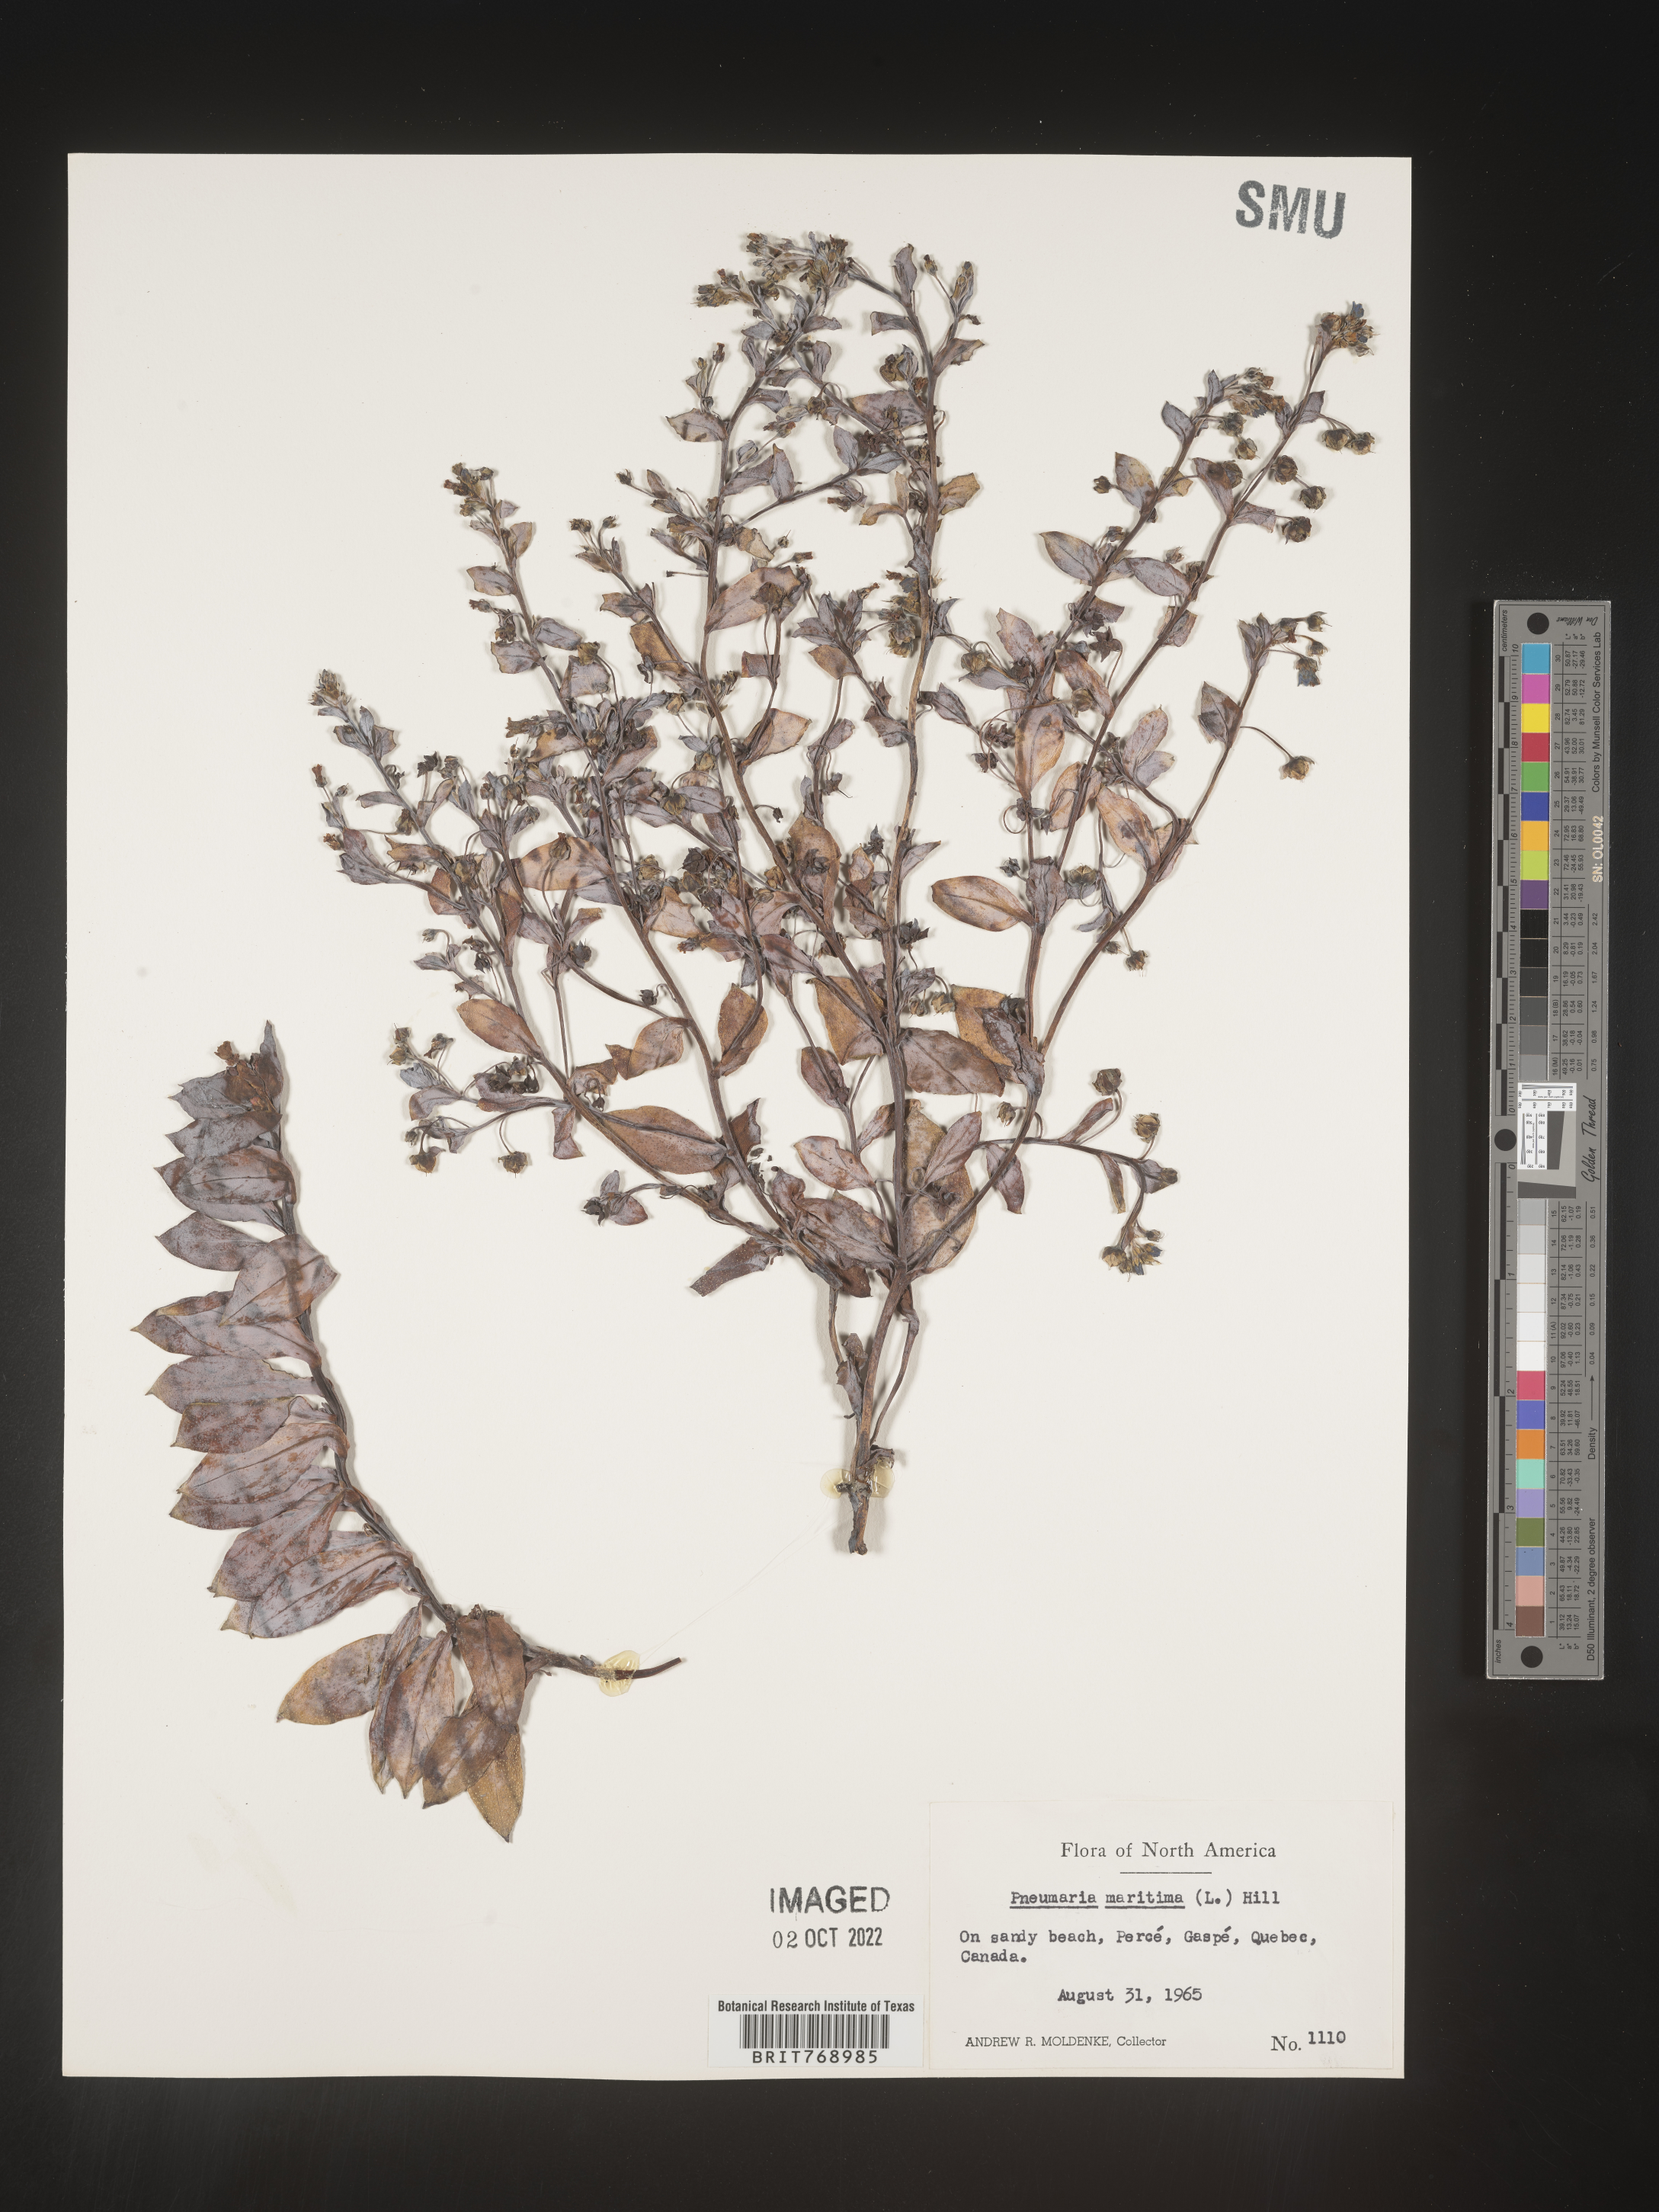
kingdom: Plantae
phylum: Tracheophyta
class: Magnoliopsida
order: Boraginales
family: Boraginaceae
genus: Mertensia
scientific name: Mertensia
